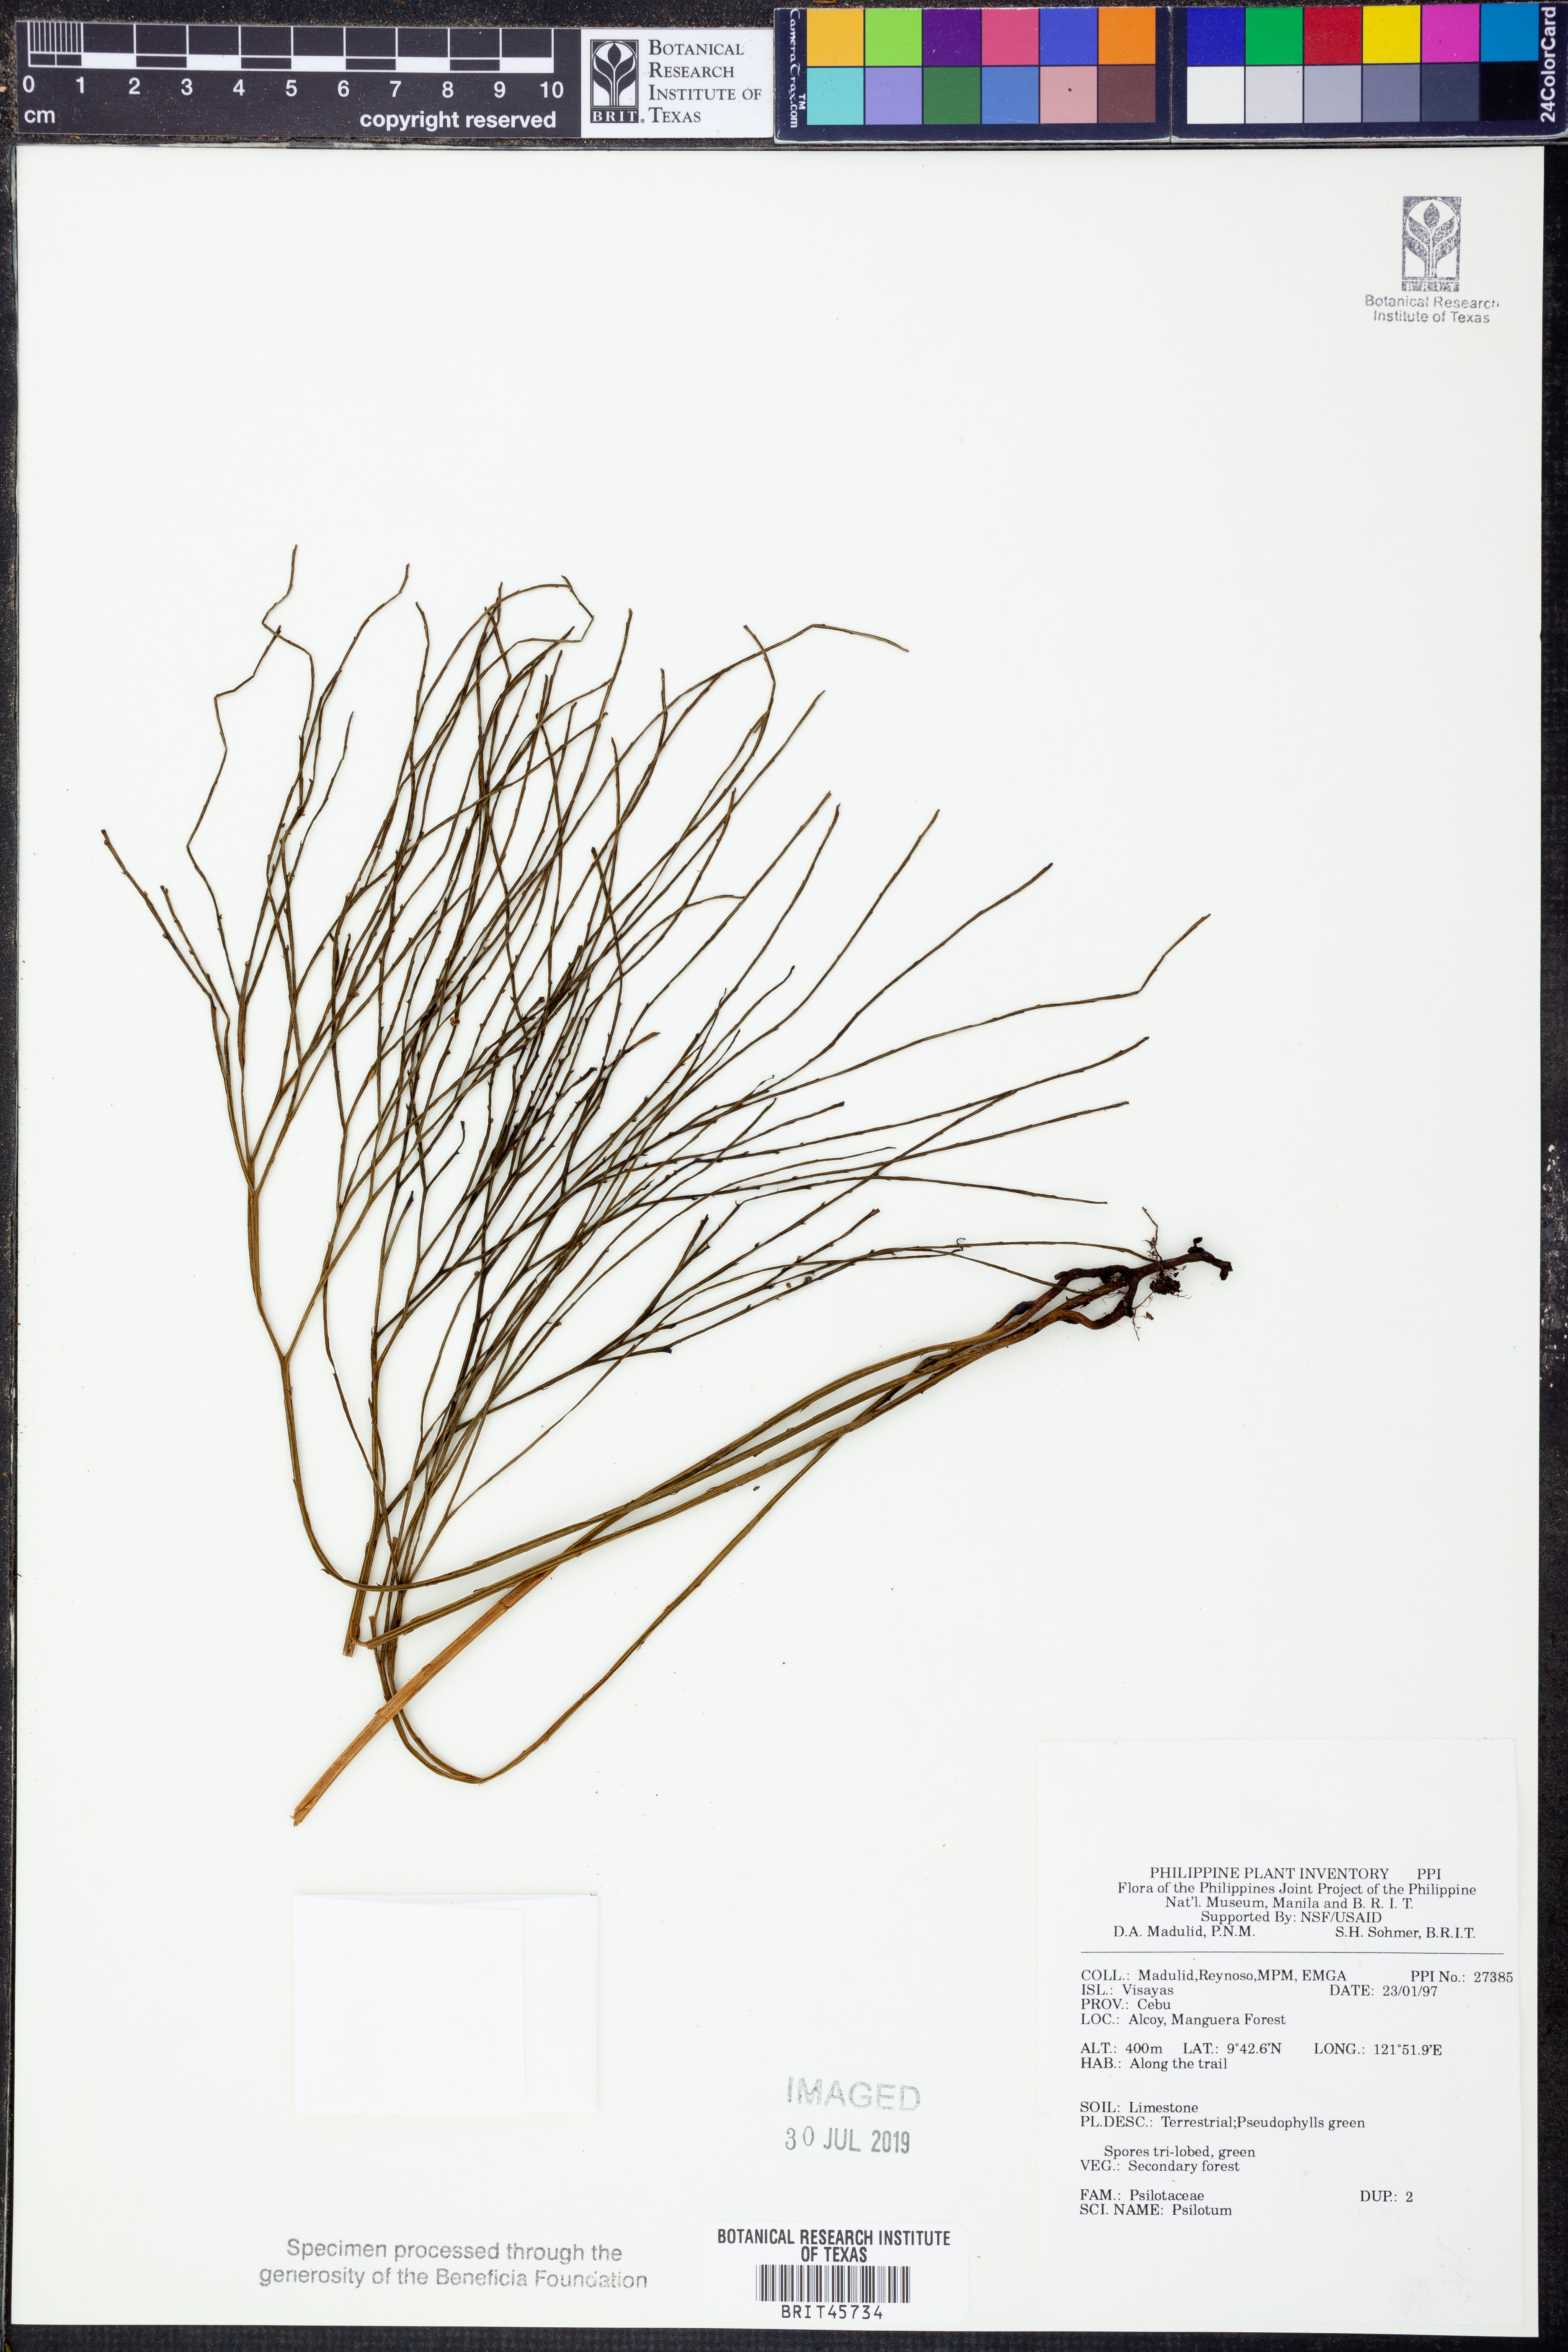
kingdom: Plantae
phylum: Tracheophyta
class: Polypodiopsida
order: Psilotales
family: Psilotaceae
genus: Psilotum
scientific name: Psilotum
